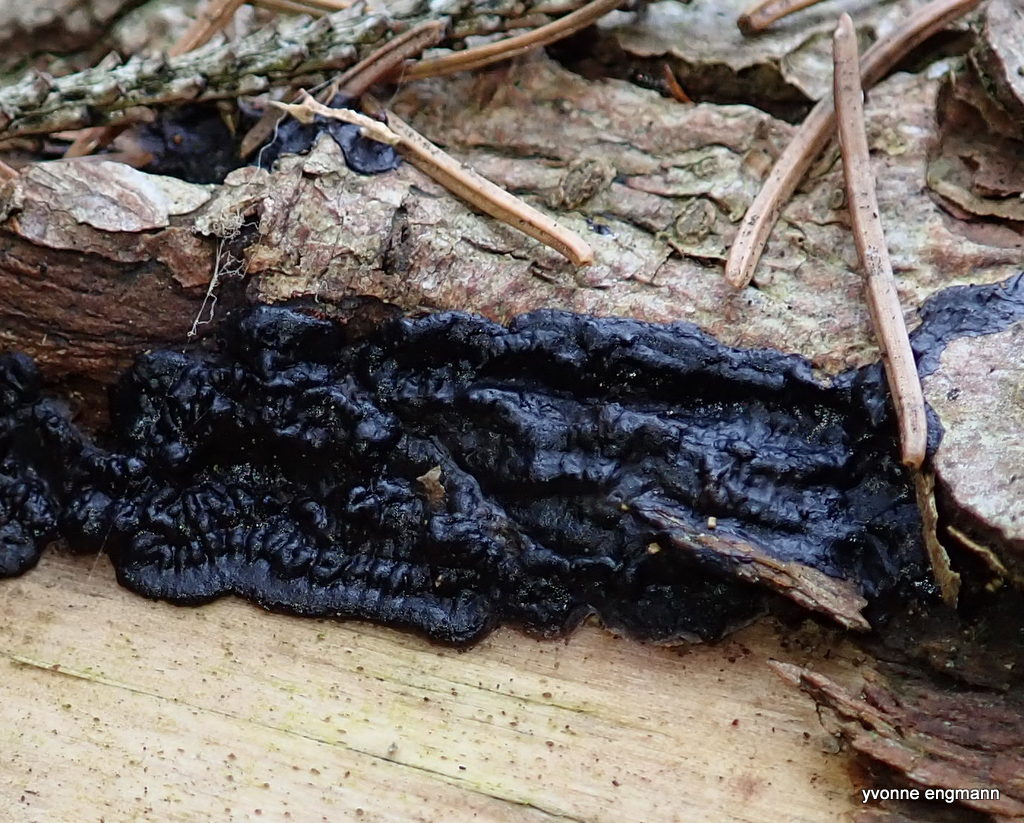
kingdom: Fungi
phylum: Basidiomycota
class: Agaricomycetes
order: Auriculariales
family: Auriculariaceae
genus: Exidia
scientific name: Exidia pithya
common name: gran-bævretop
